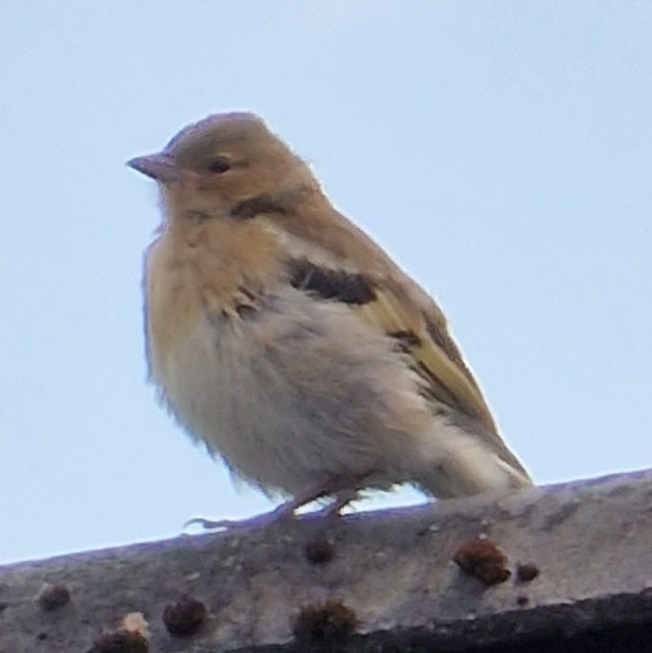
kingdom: Animalia
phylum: Chordata
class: Aves
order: Passeriformes
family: Fringillidae
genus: Carduelis
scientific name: Carduelis carduelis
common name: Stillits
